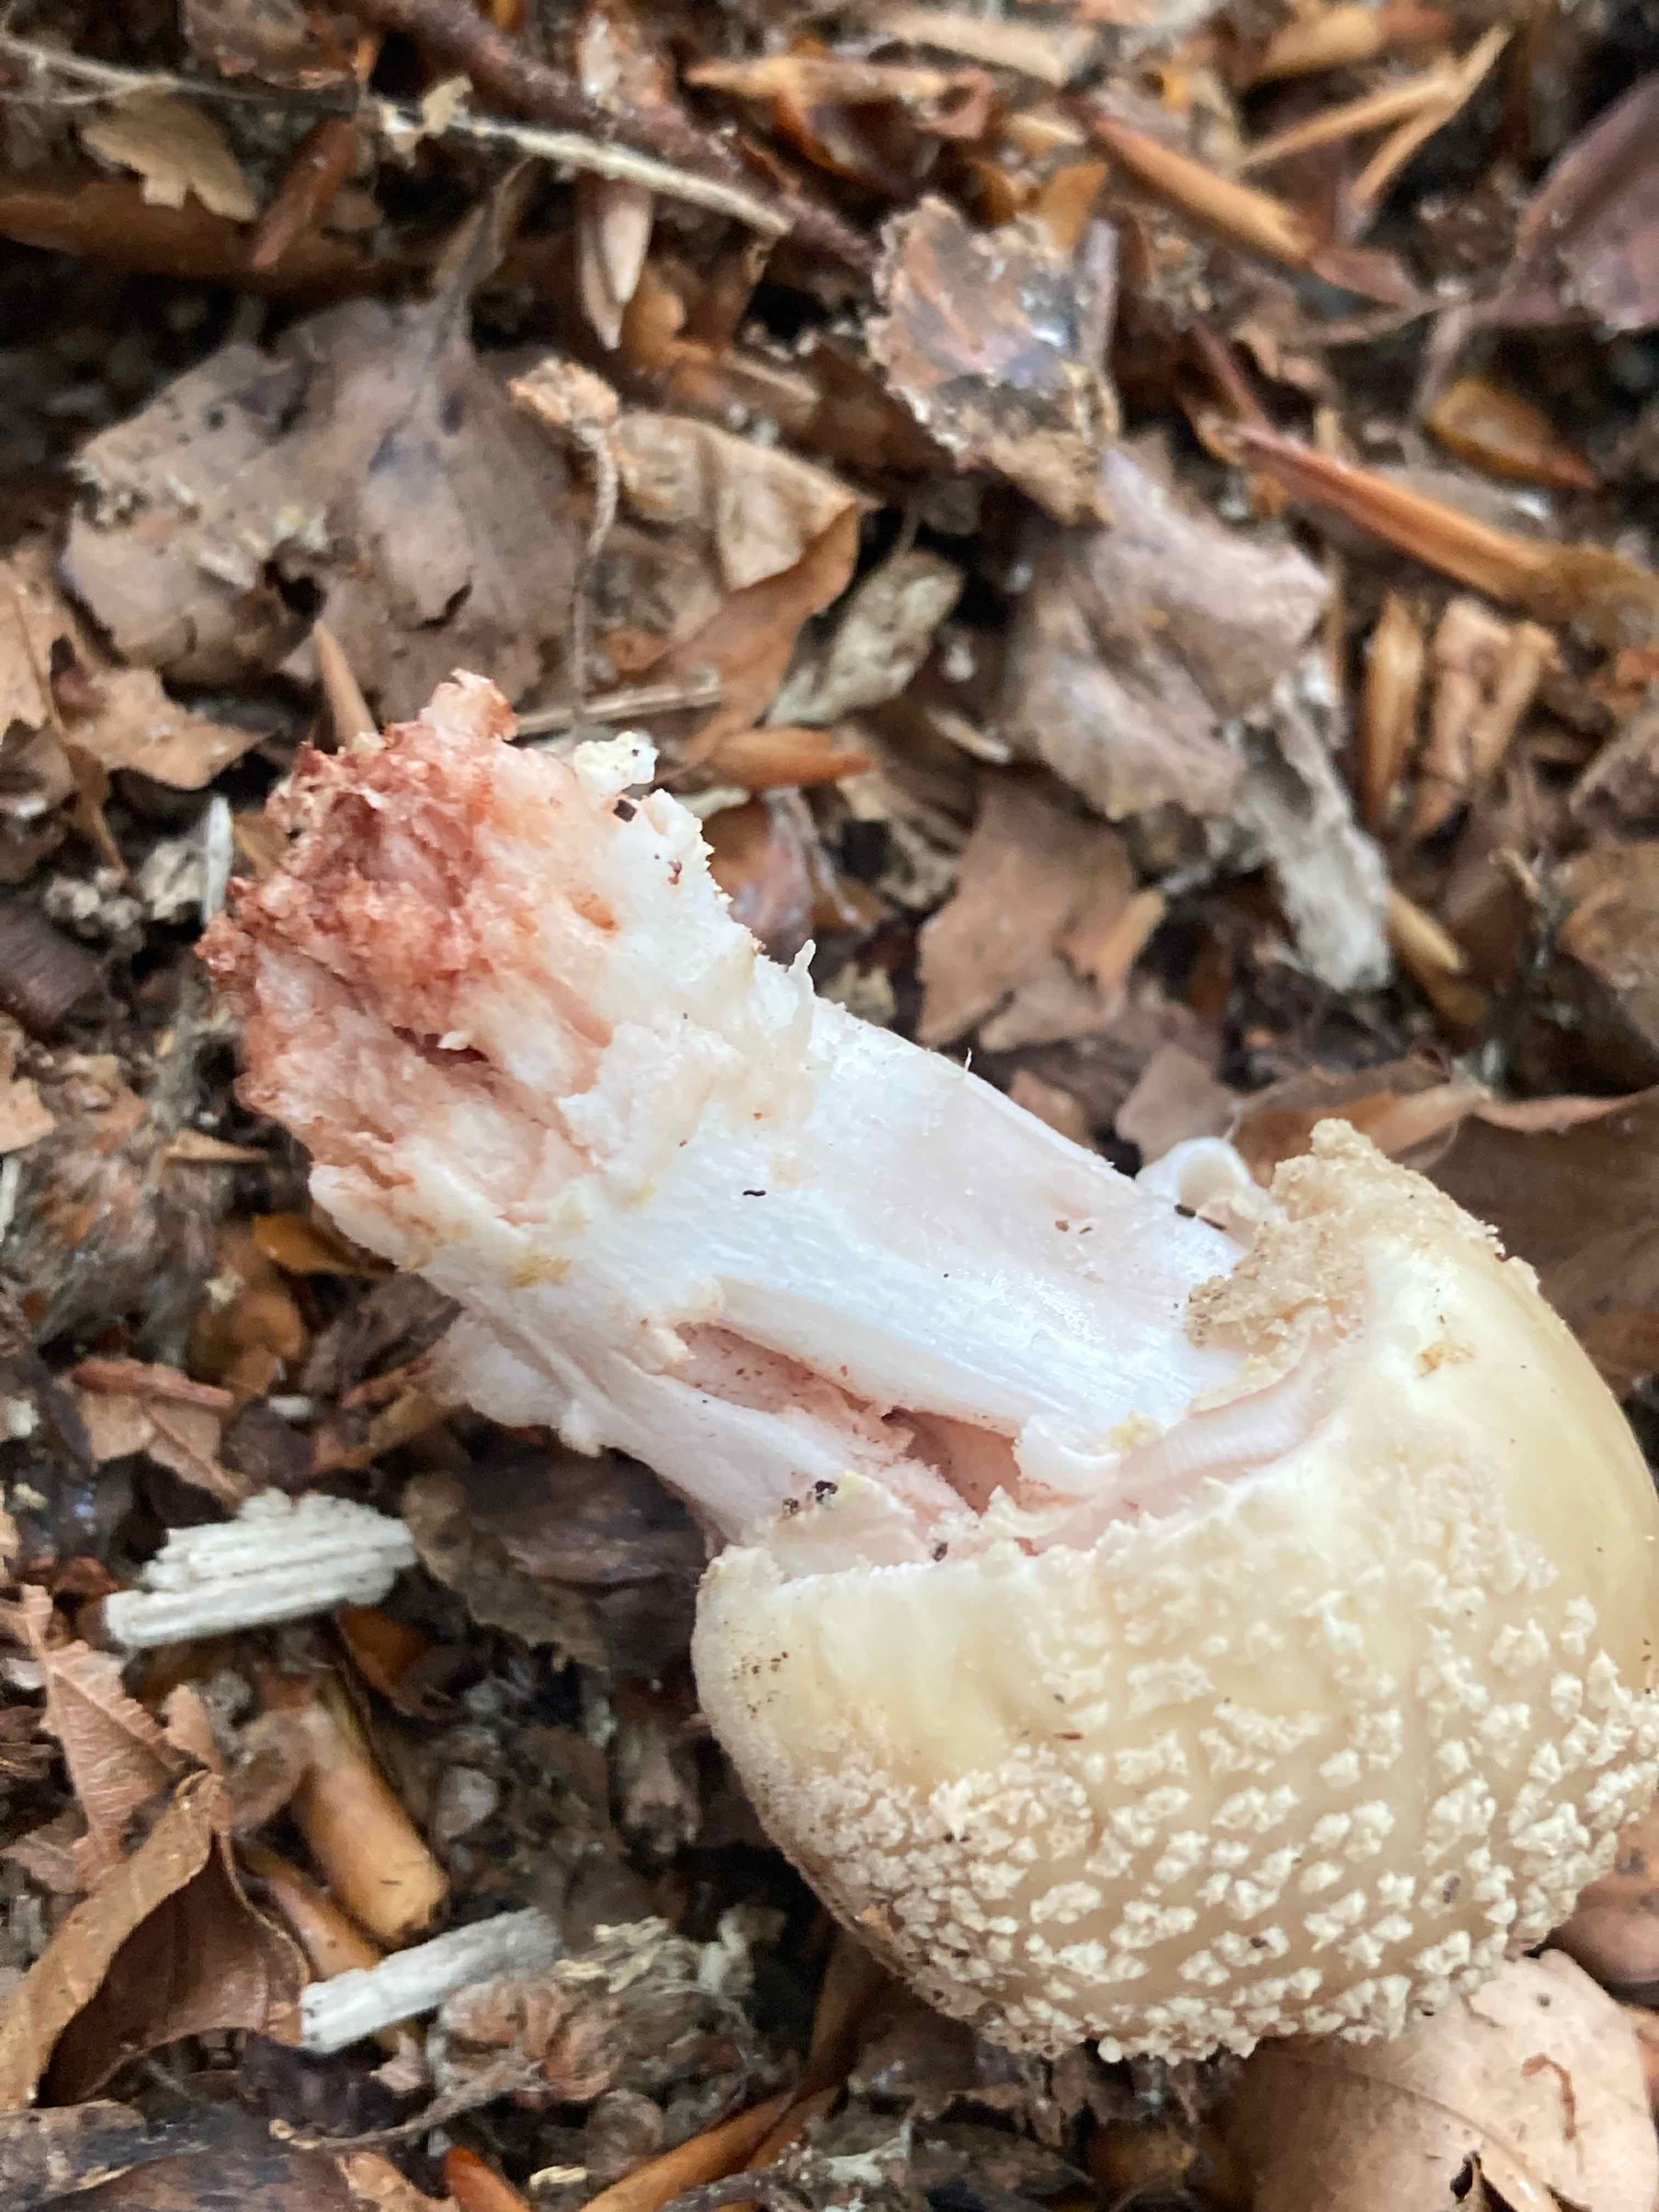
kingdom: Fungi
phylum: Basidiomycota
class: Agaricomycetes
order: Agaricales
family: Amanitaceae
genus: Amanita
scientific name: Amanita rubescens
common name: rødmende fluesvamp
